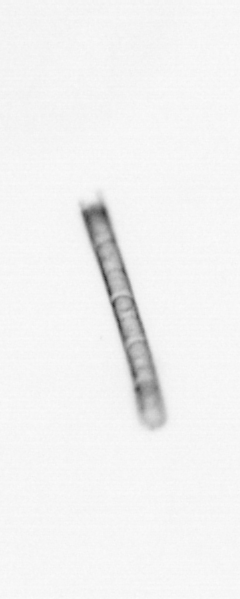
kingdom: Chromista
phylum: Ochrophyta
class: Bacillariophyceae
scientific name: Bacillariophyceae
